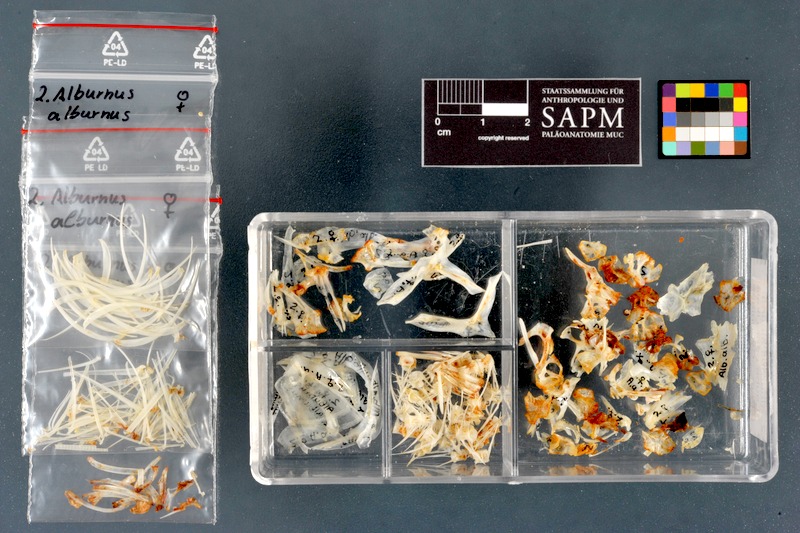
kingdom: Animalia
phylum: Chordata
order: Cypriniformes
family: Cyprinidae
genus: Alburnus
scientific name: Alburnus alburnus
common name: Bleak
